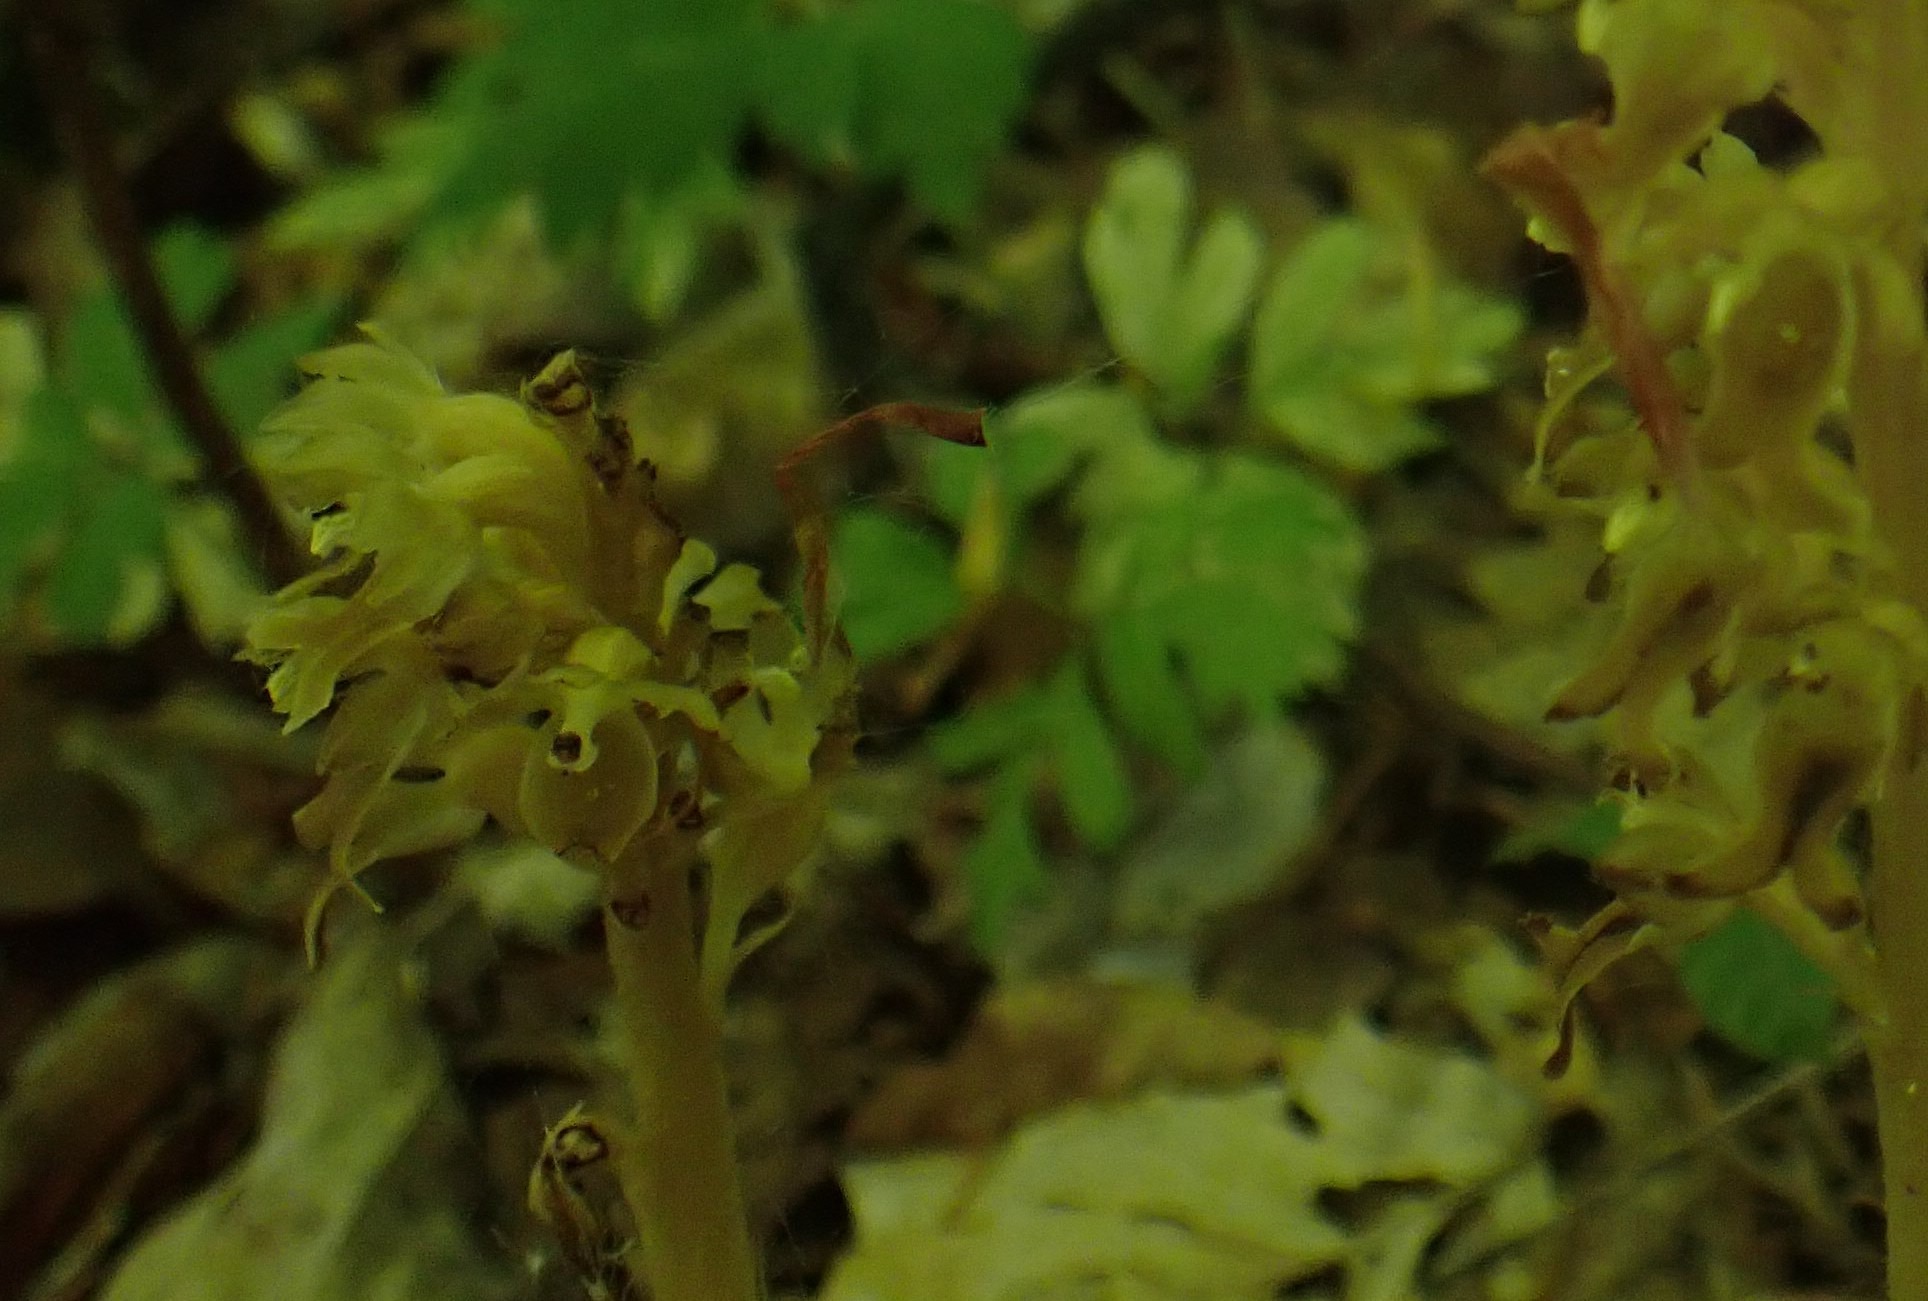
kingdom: Plantae
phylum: Tracheophyta
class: Liliopsida
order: Asparagales
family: Orchidaceae
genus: Neottia
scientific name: Neottia nidus-avis
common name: Rederod
